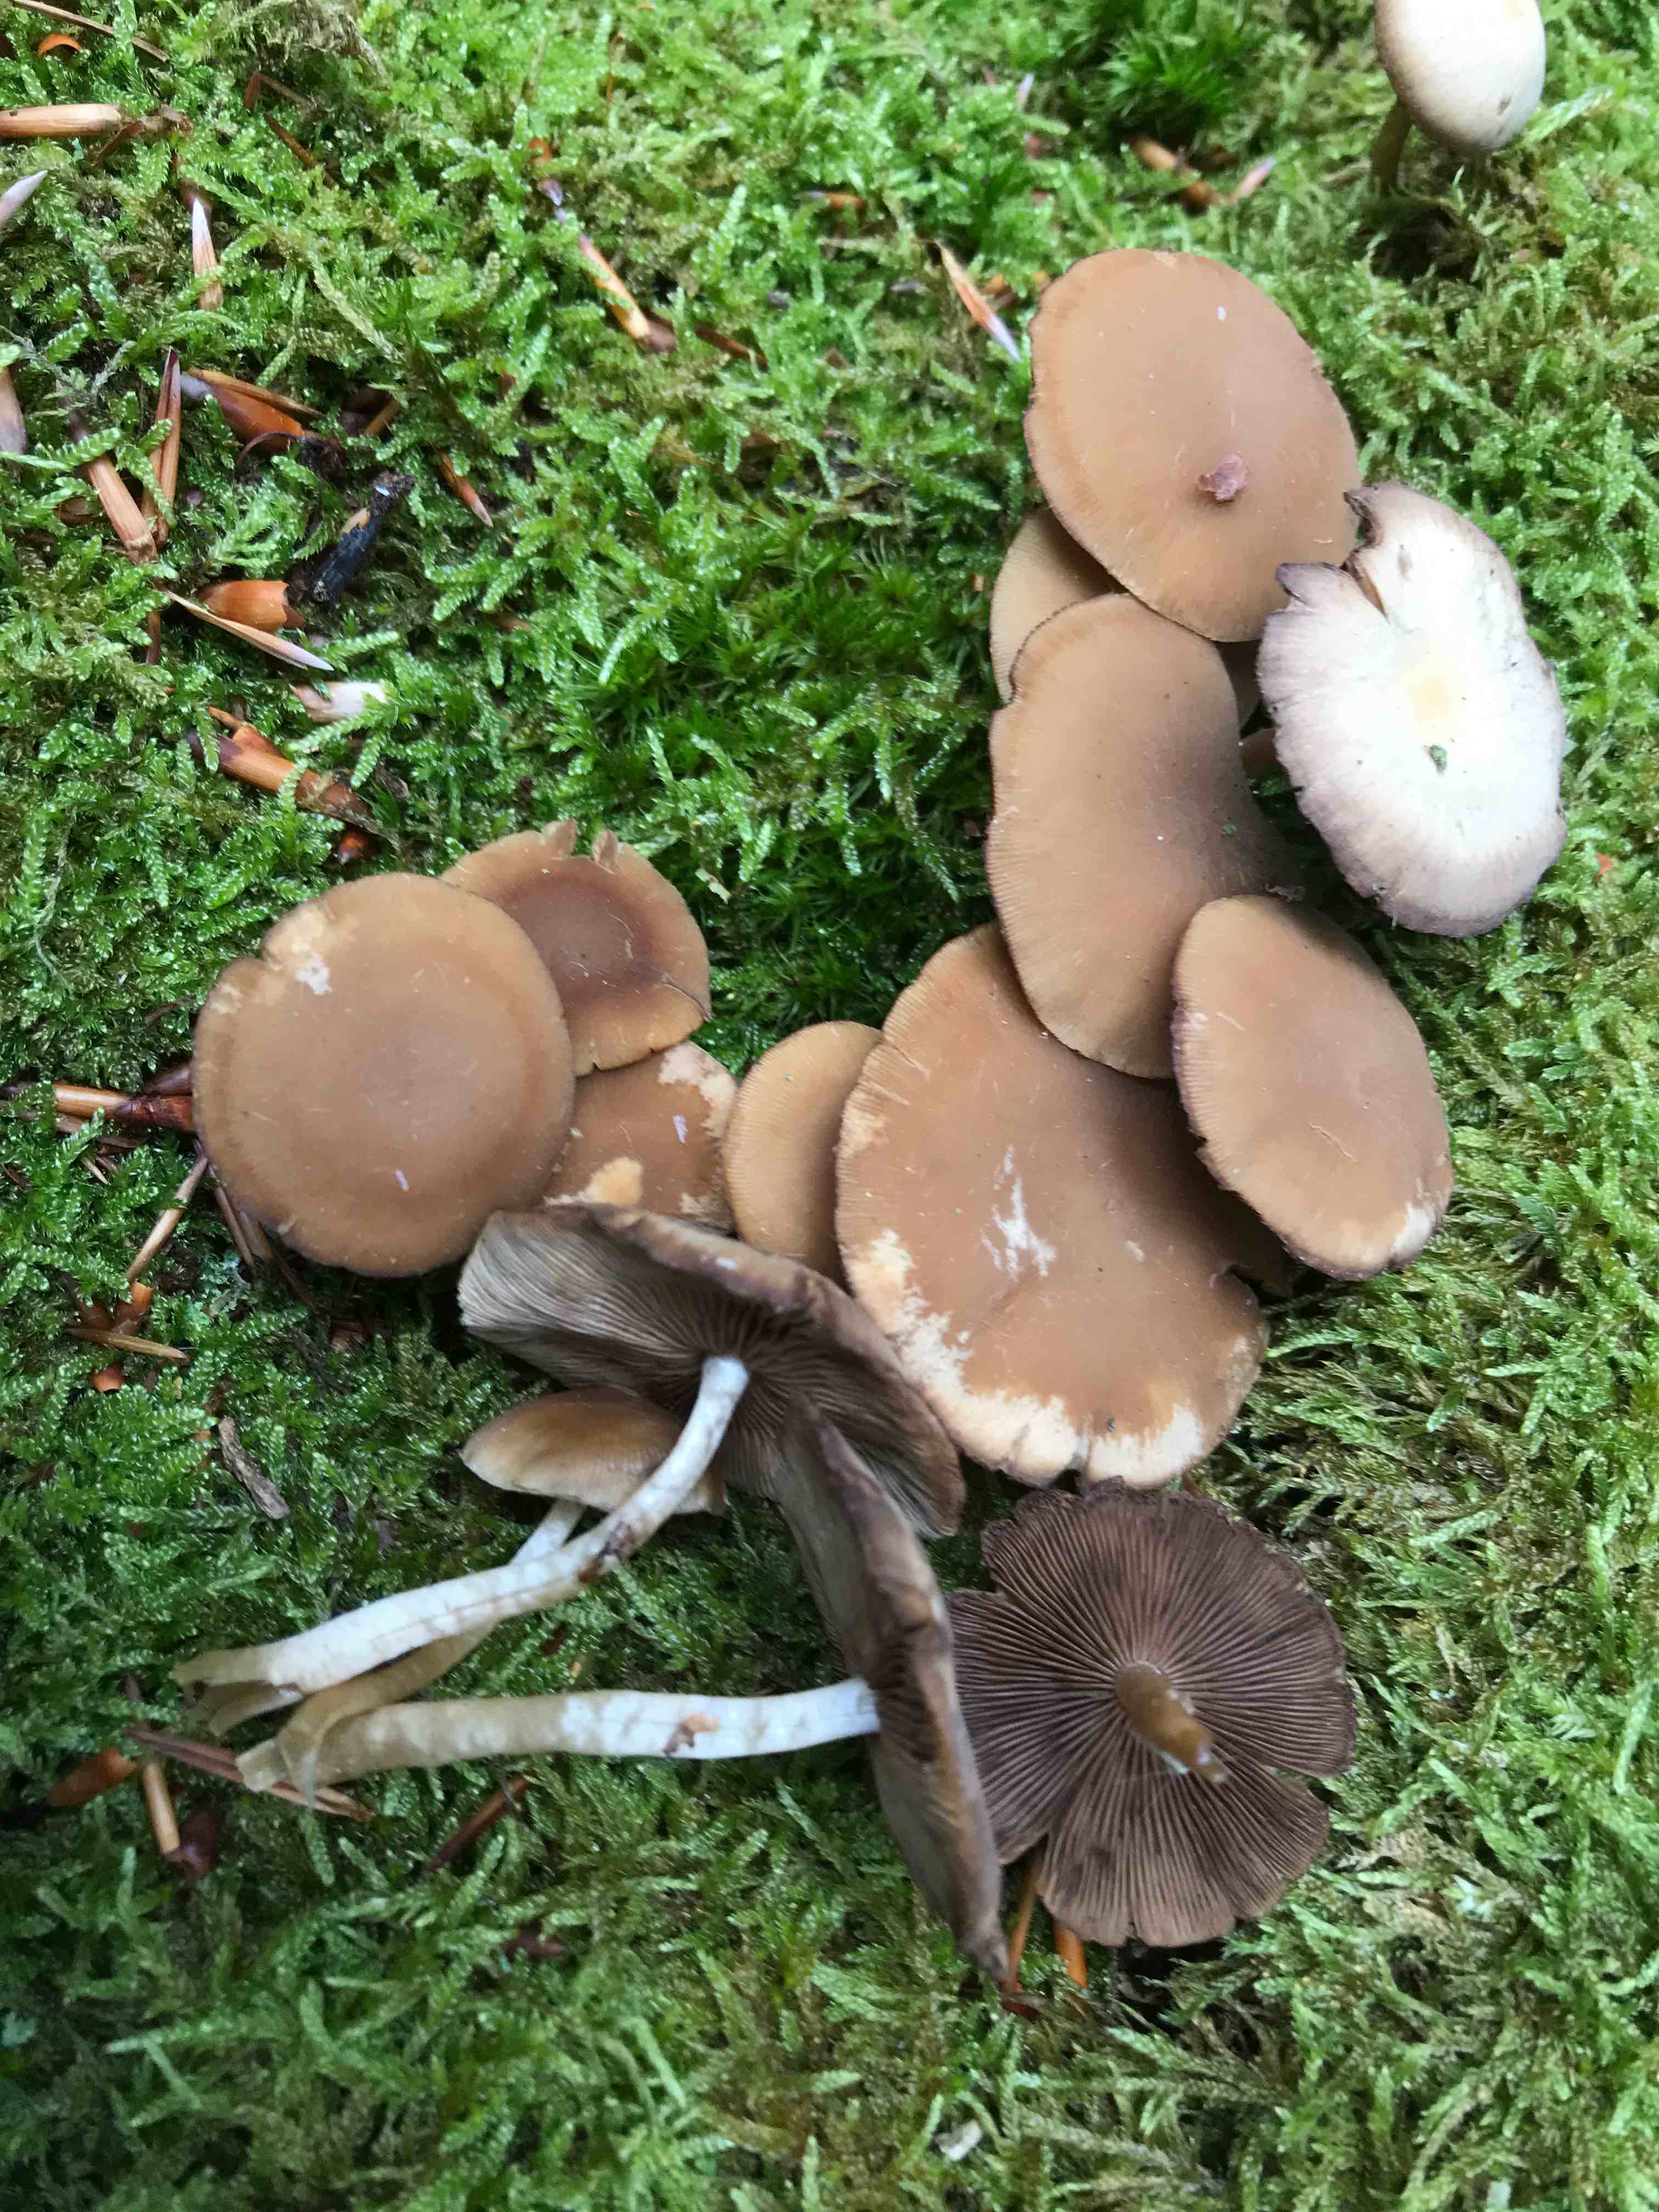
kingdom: Fungi
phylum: Basidiomycota
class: Agaricomycetes
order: Agaricales
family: Psathyrellaceae
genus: Psathyrella
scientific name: Psathyrella piluliformis
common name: lysstokket mørkhat
